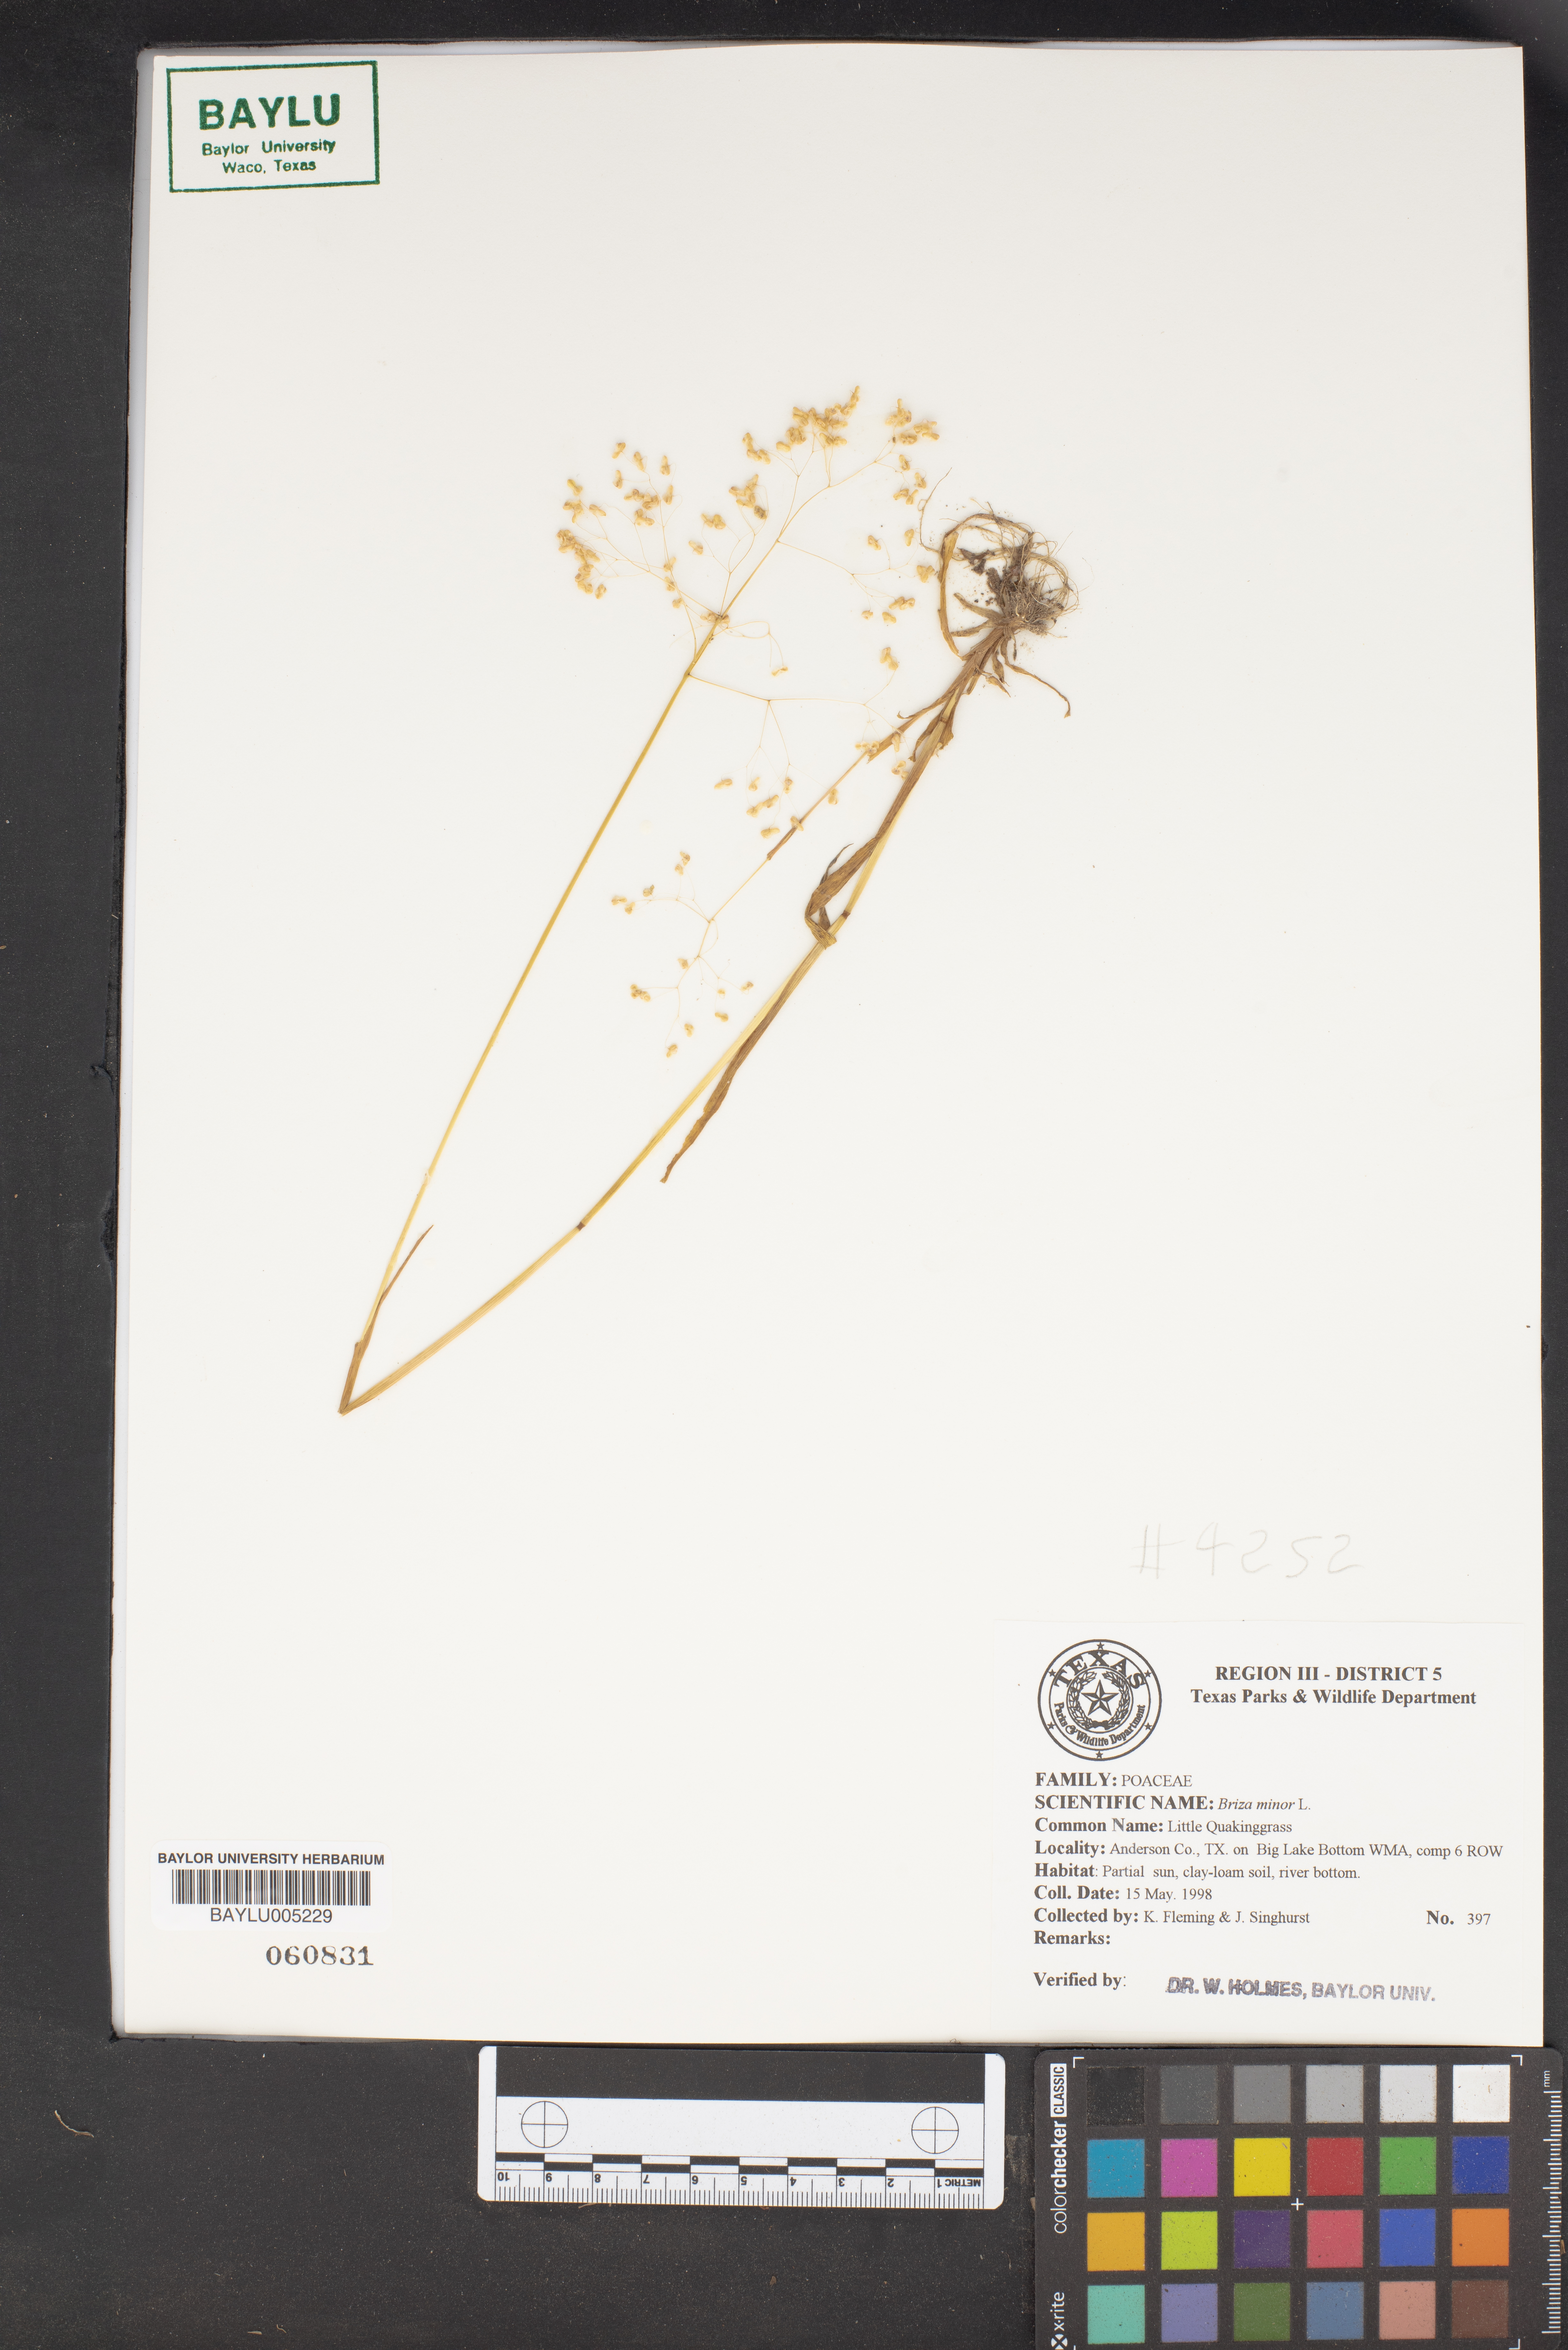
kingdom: Plantae
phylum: Tracheophyta
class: Liliopsida
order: Poales
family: Poaceae
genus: Briza
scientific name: Briza minor
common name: Lesser quaking-grass
